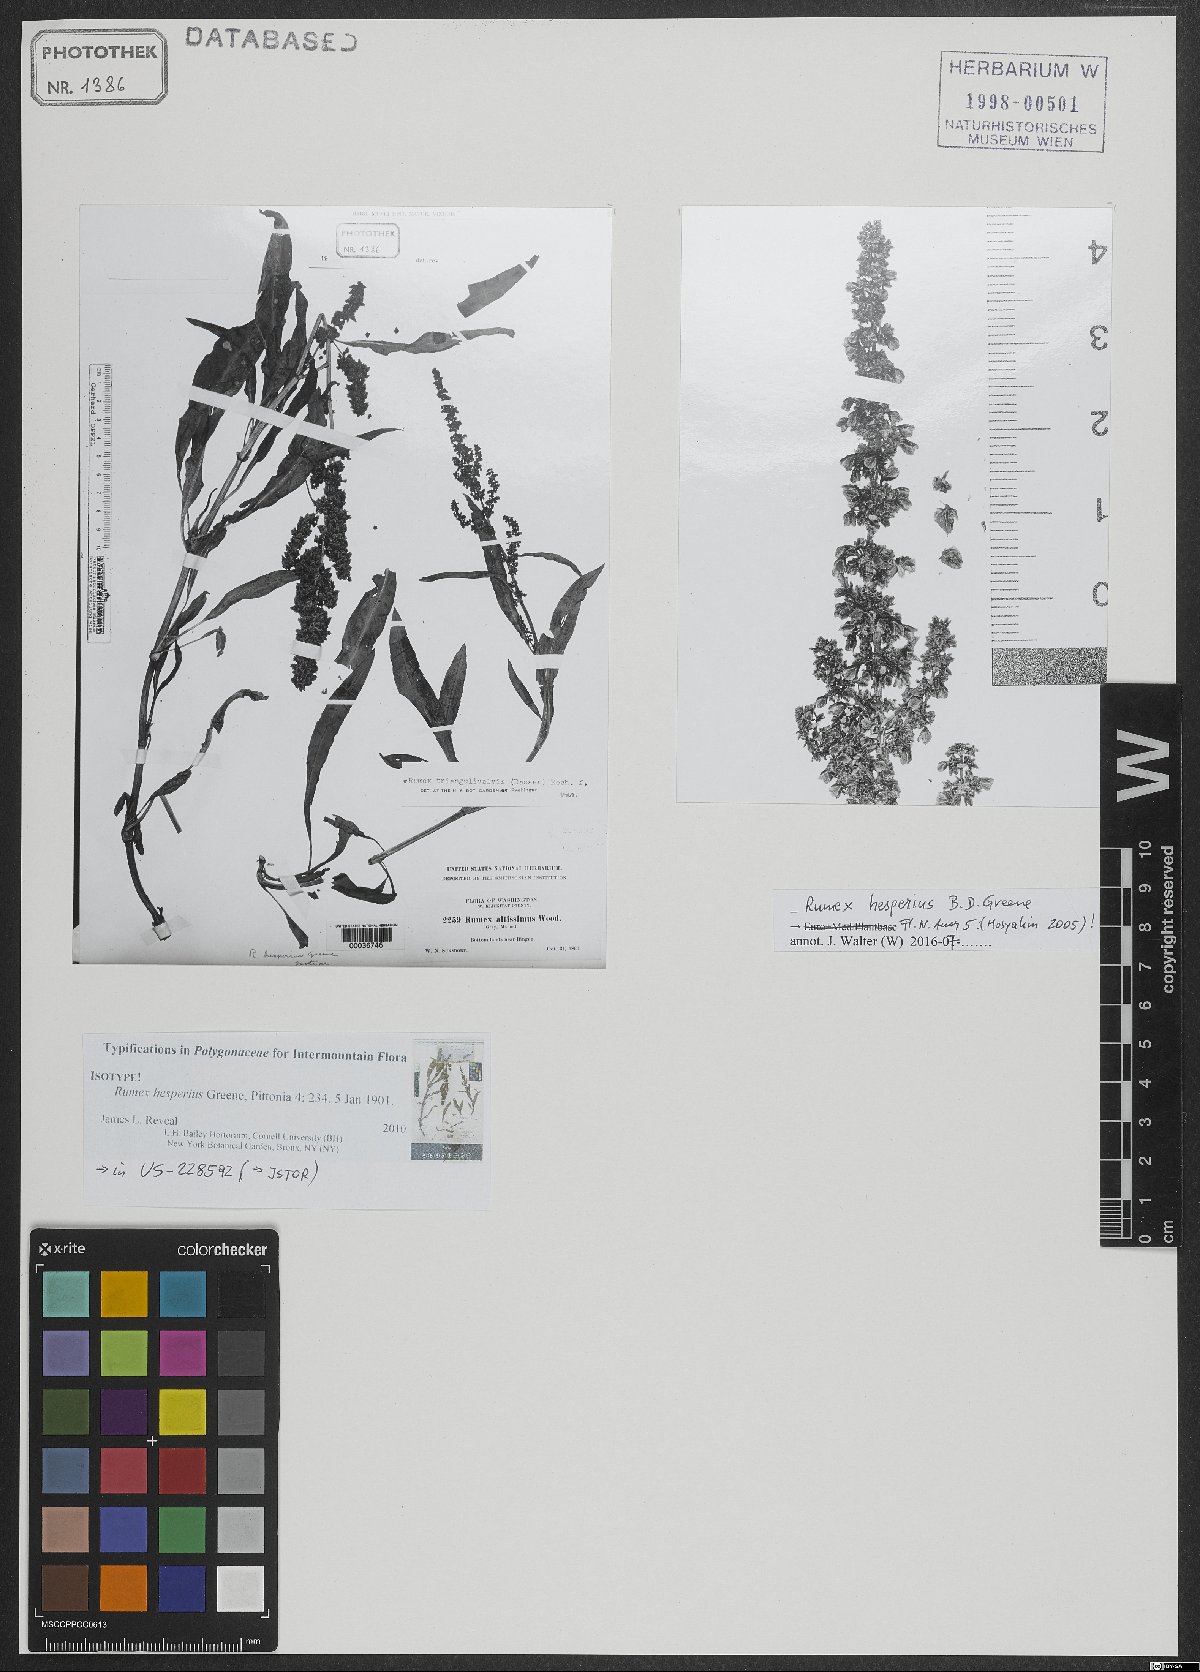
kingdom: Plantae
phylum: Tracheophyta
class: Magnoliopsida
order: Caryophyllales
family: Polygonaceae
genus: Rumex
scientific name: Rumex salicifolius
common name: Willow-leaved dock
